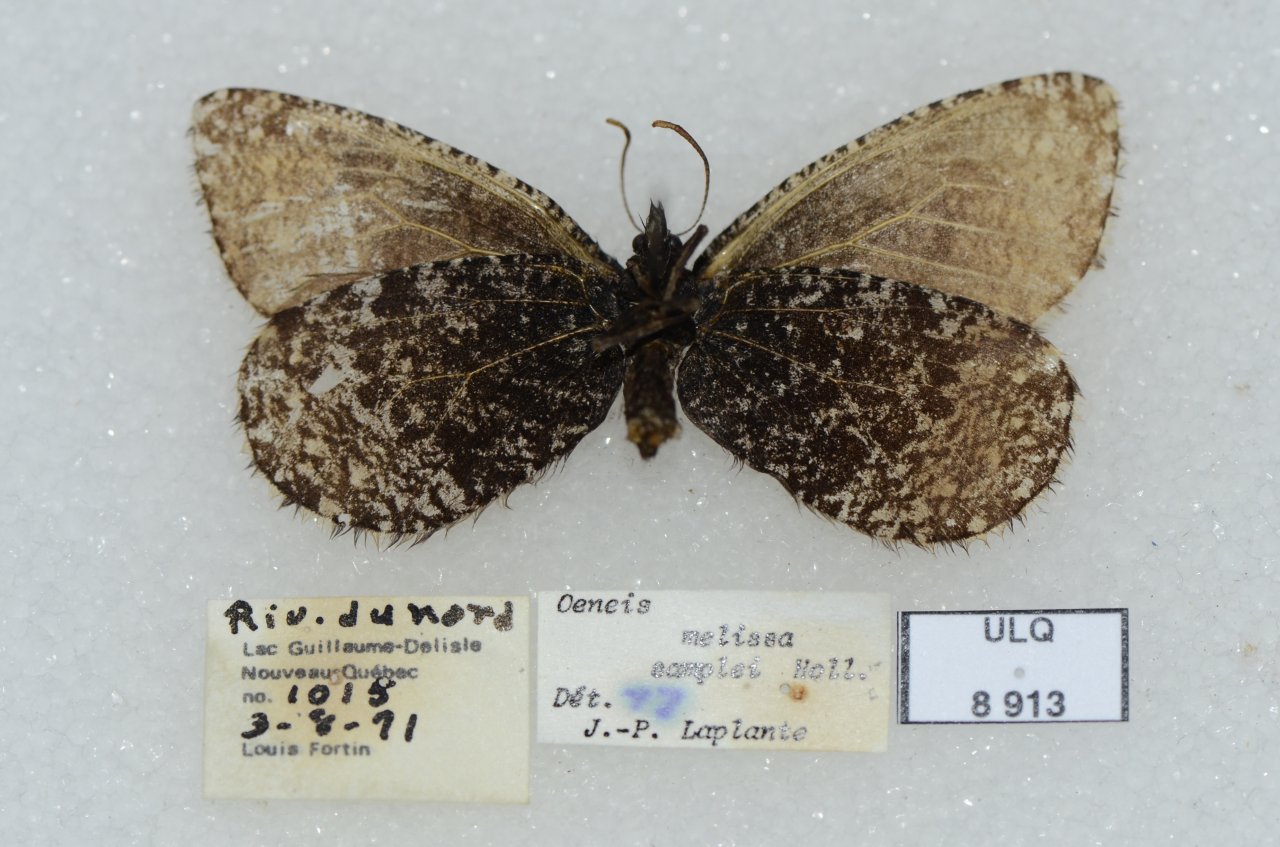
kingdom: Animalia
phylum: Arthropoda
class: Insecta
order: Lepidoptera
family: Nymphalidae
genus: Oeneis
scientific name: Oeneis melissa
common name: Melissa Arctic
